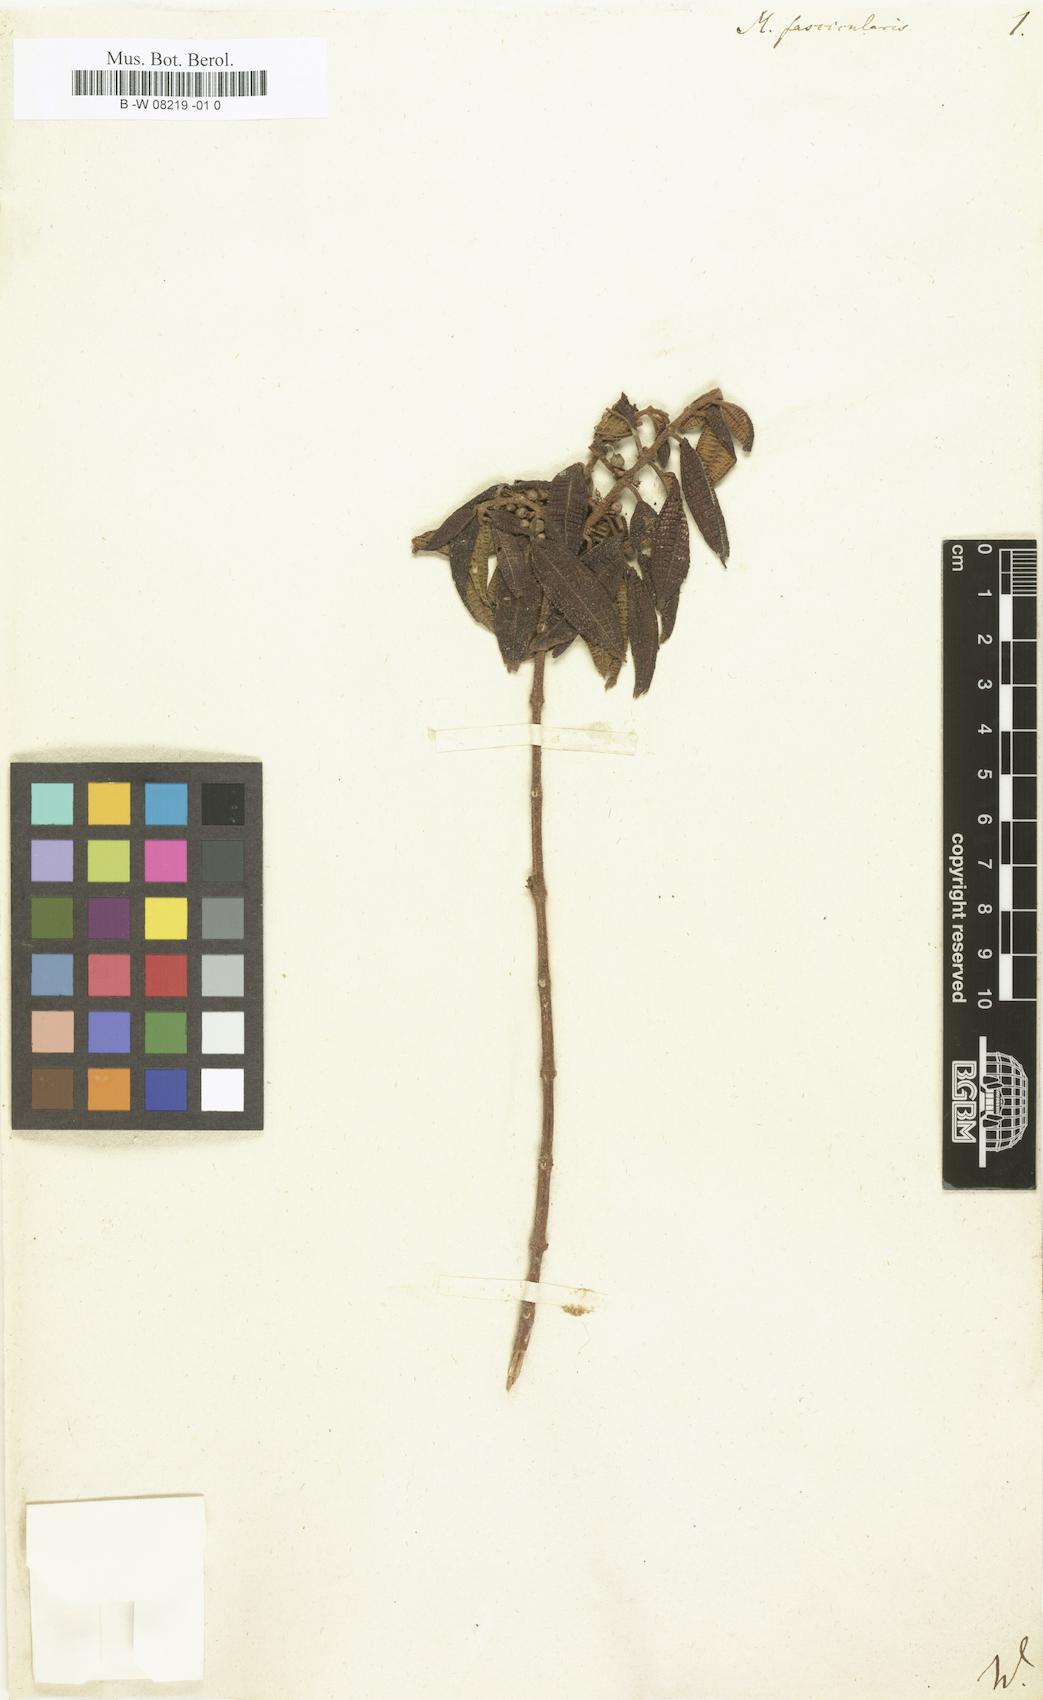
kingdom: Plantae
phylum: Tracheophyta
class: Magnoliopsida
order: Myrtales
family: Melastomataceae
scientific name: Melastomataceae
